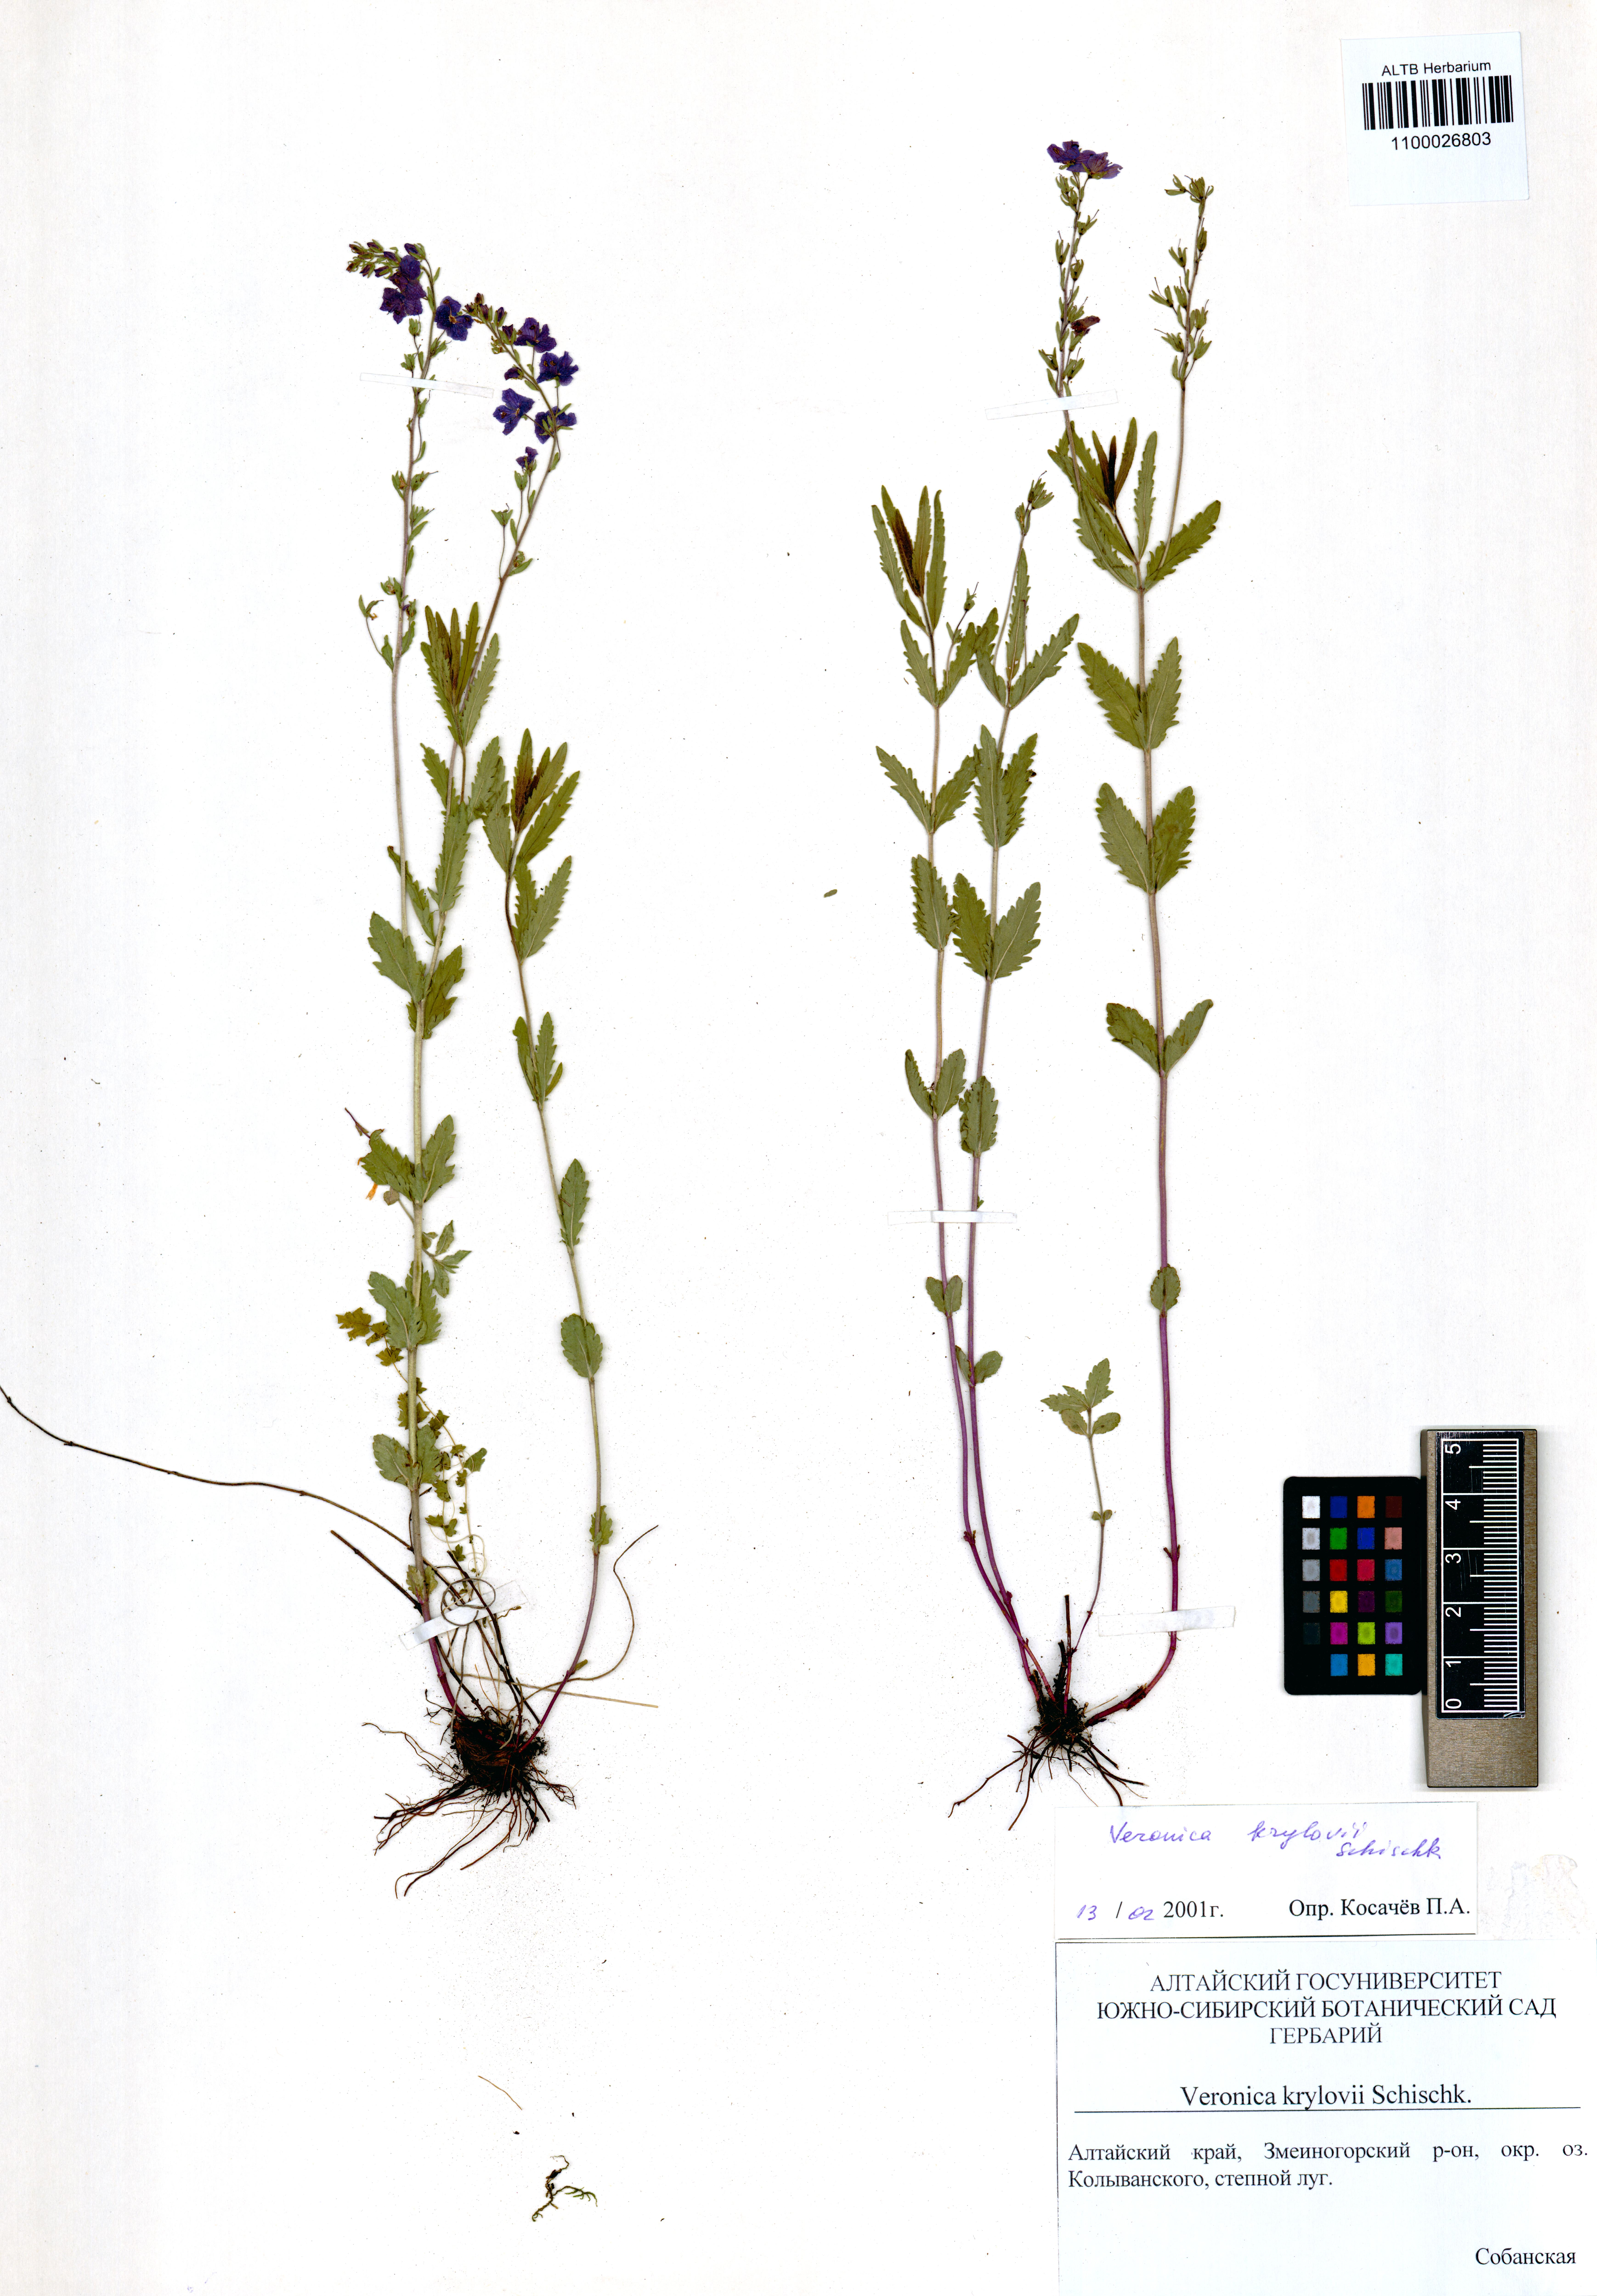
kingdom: Plantae
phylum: Tracheophyta
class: Magnoliopsida
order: Lamiales
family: Plantaginaceae
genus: Veronica
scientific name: Veronica krylovii
